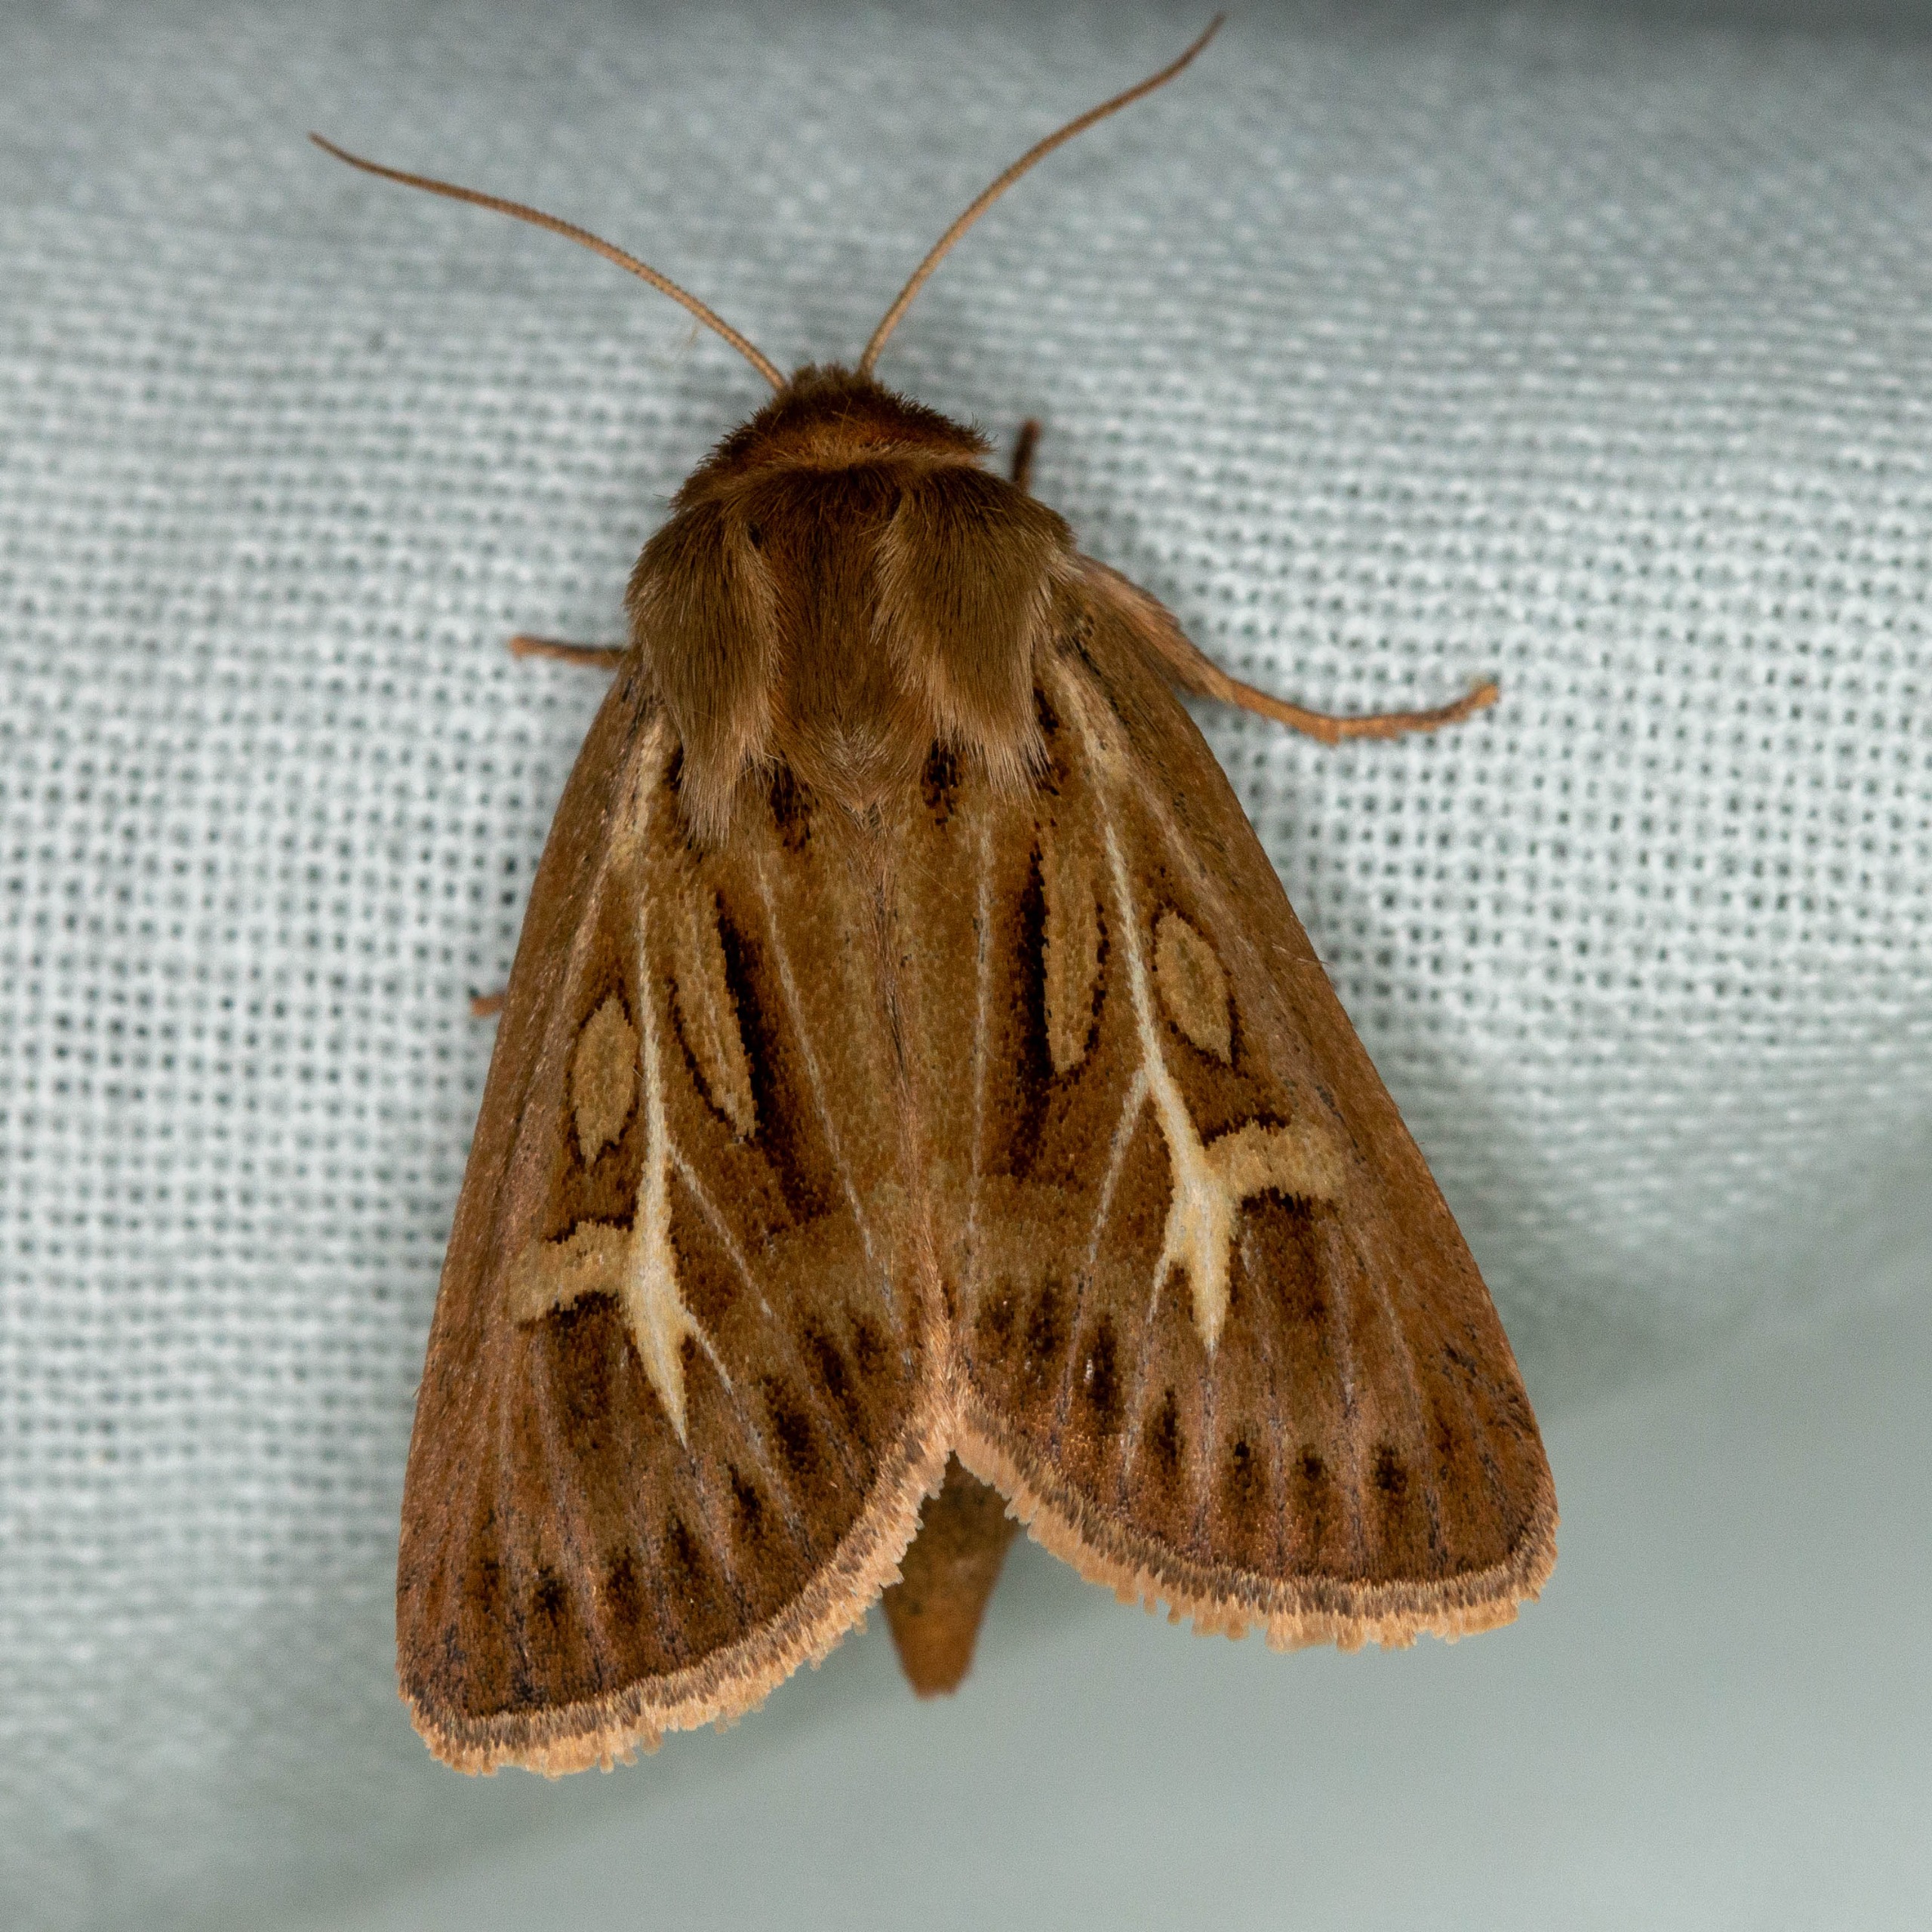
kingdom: Animalia
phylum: Arthropoda
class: Insecta
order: Lepidoptera
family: Noctuidae
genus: Cerapteryx
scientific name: Cerapteryx graminis
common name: Mosebunkeugle
